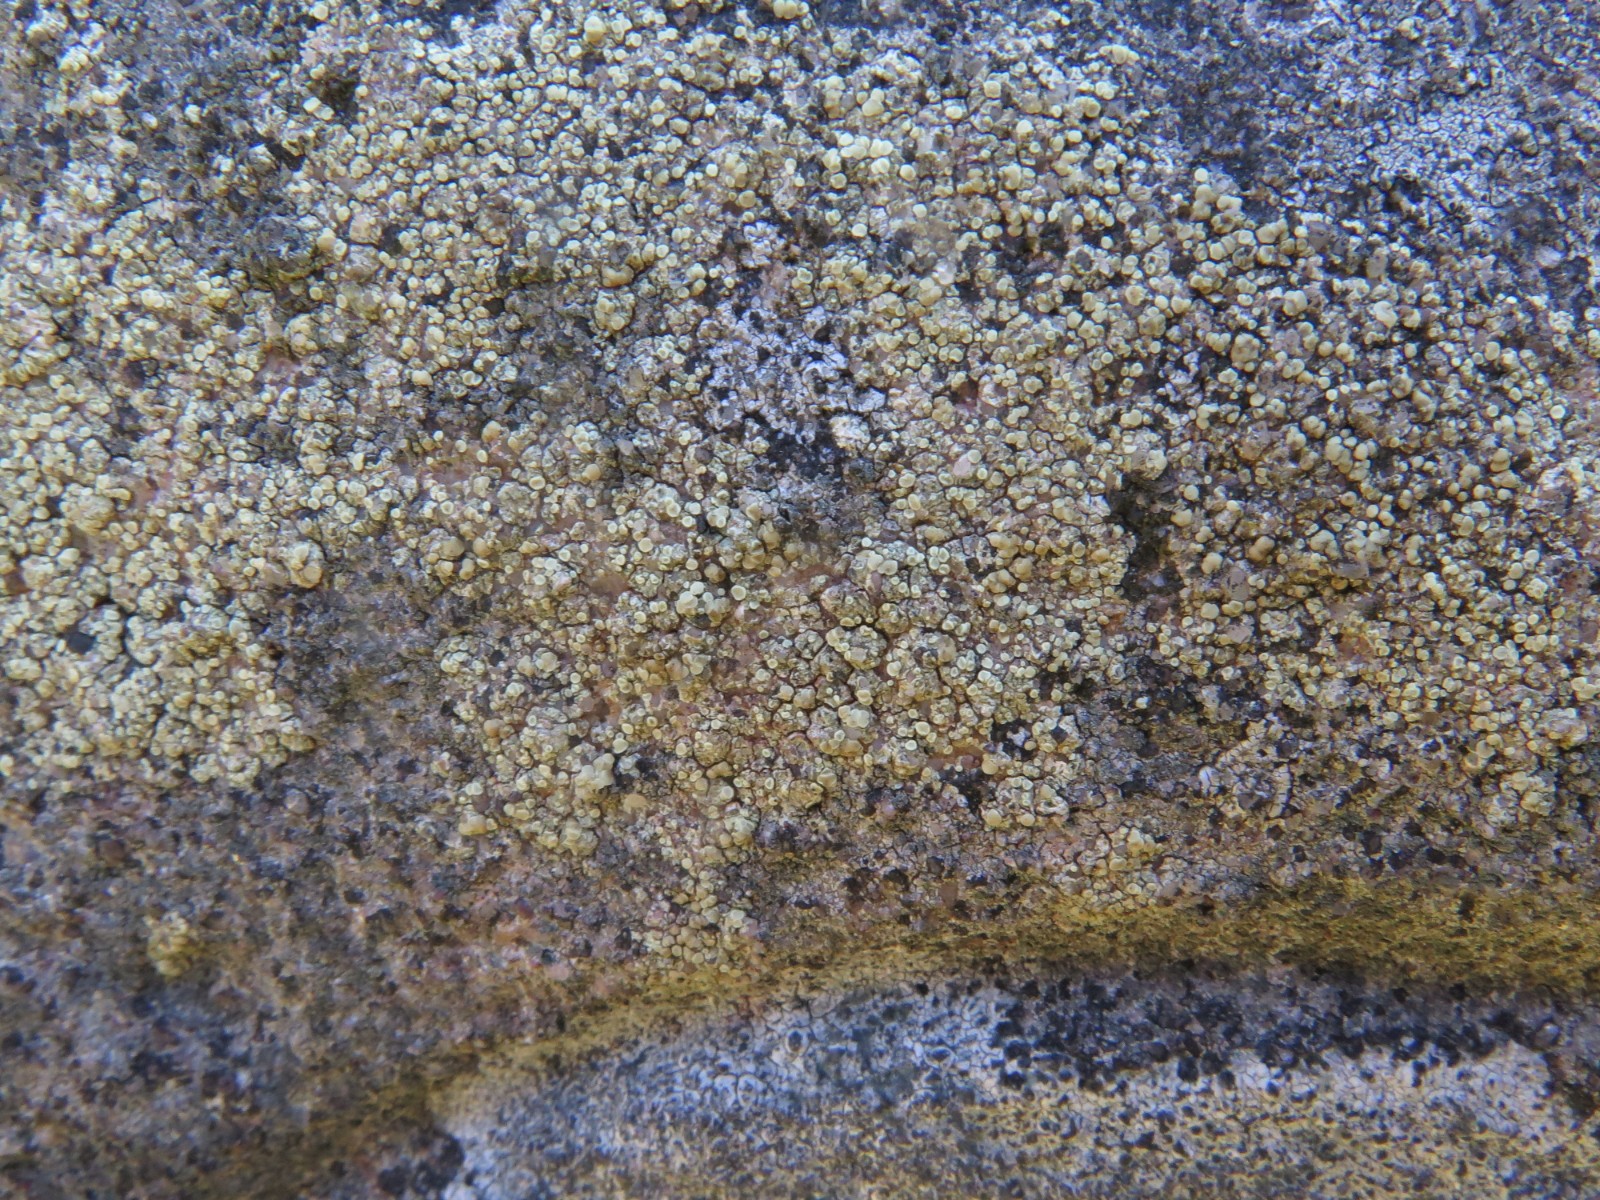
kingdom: Fungi
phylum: Ascomycota
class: Lecanoromycetes
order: Lecanorales
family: Lecanoraceae
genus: Lecanora
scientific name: Lecanora polytropa
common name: bleggrøn kantskivelav
